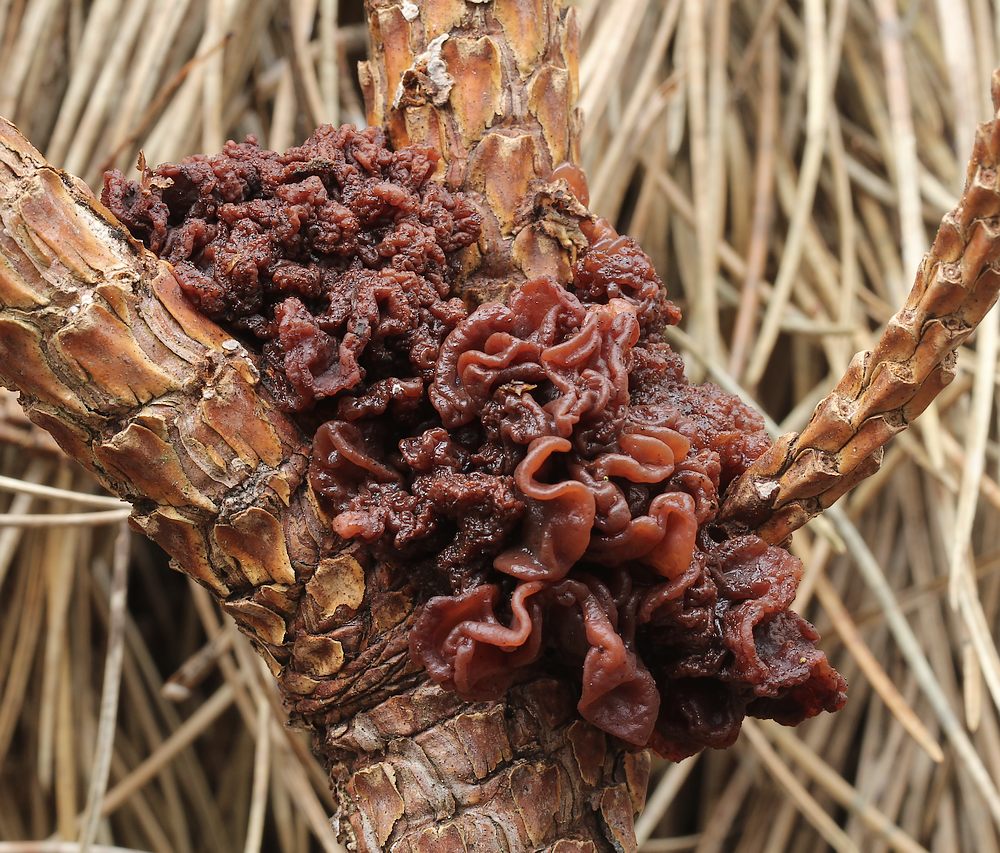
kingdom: Fungi
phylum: Basidiomycota
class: Tremellomycetes
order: Tremellales
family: Tremellaceae
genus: Phaeotremella
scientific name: Phaeotremella foliacea
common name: brun bævresvamp
